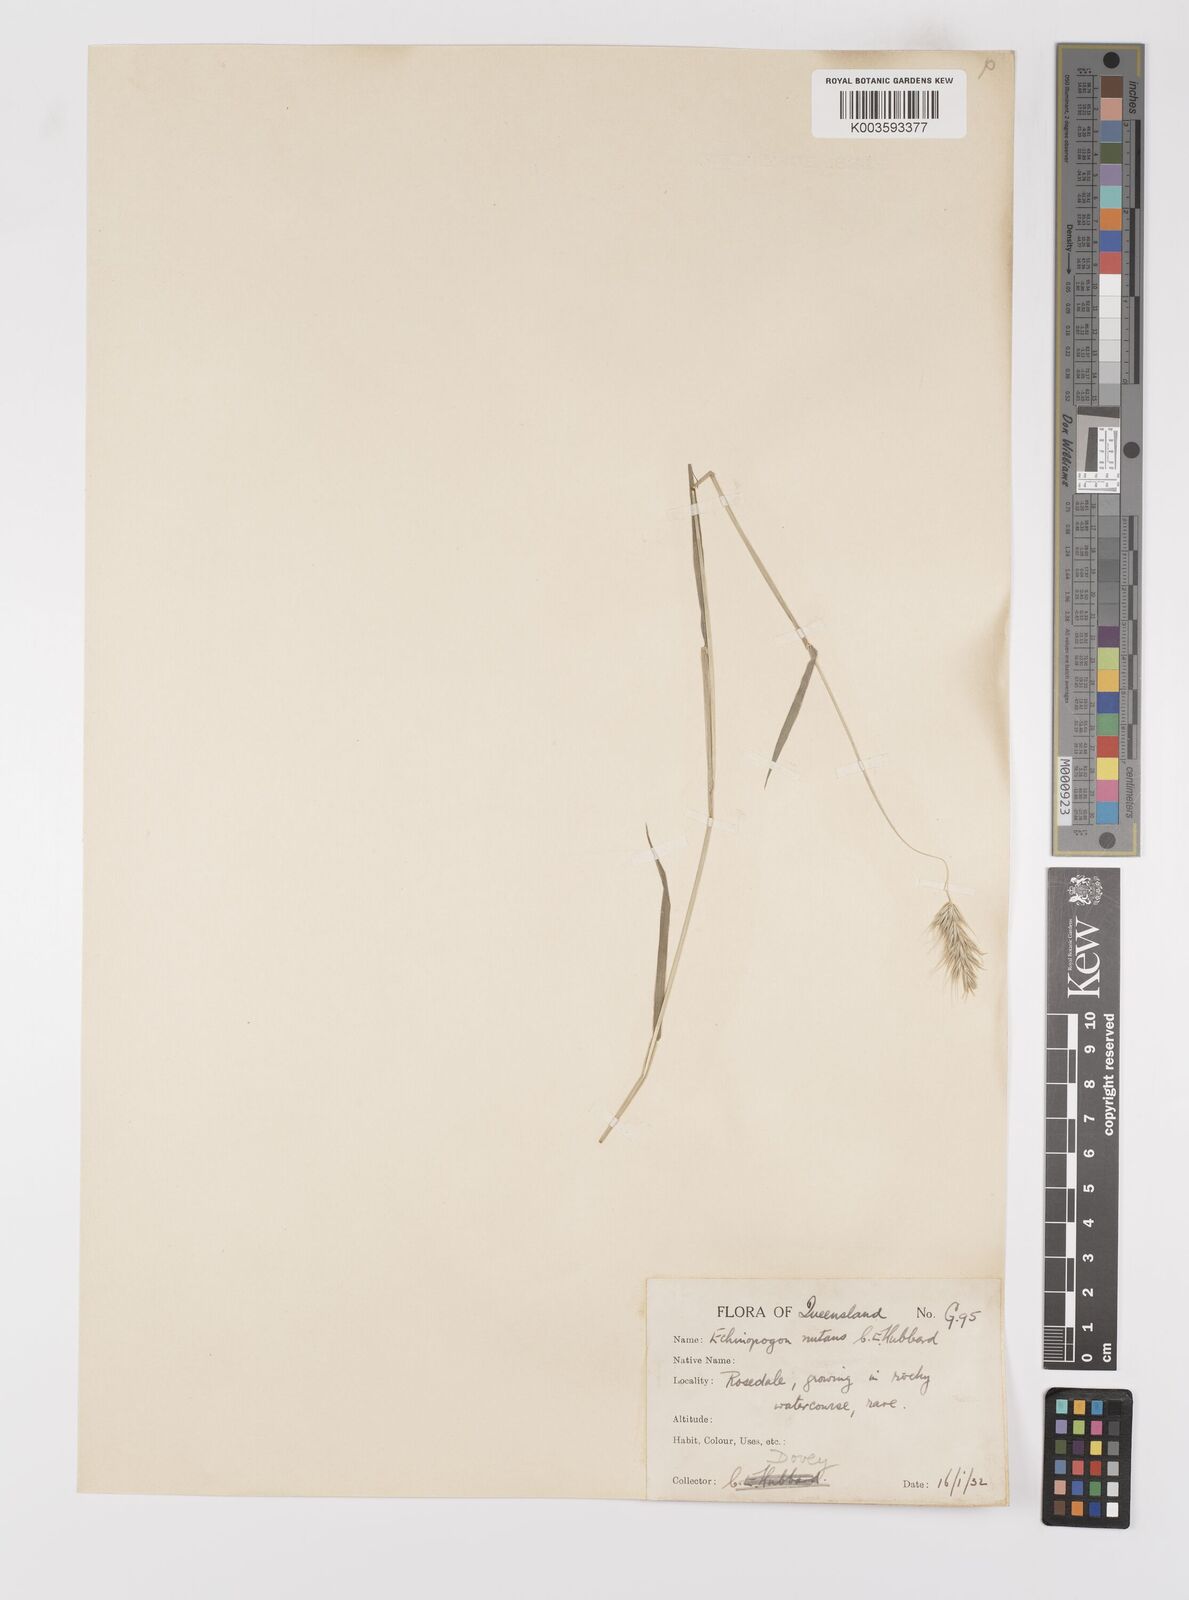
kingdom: Plantae
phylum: Tracheophyta
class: Liliopsida
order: Poales
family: Poaceae
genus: Echinopogon
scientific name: Echinopogon nutans
